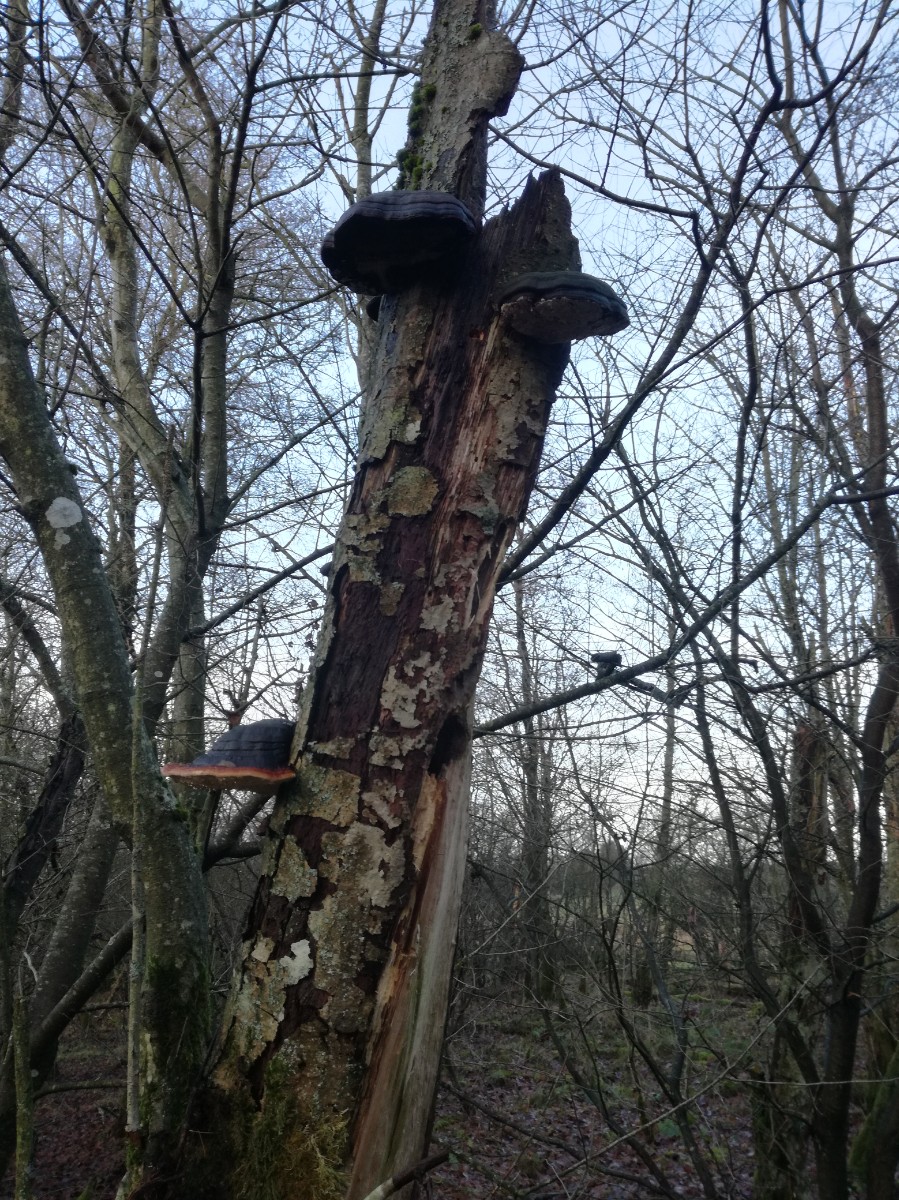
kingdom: Fungi
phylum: Basidiomycota
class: Agaricomycetes
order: Polyporales
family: Fomitopsidaceae
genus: Fomitopsis
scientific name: Fomitopsis pinicola
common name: randbæltet hovporesvamp
